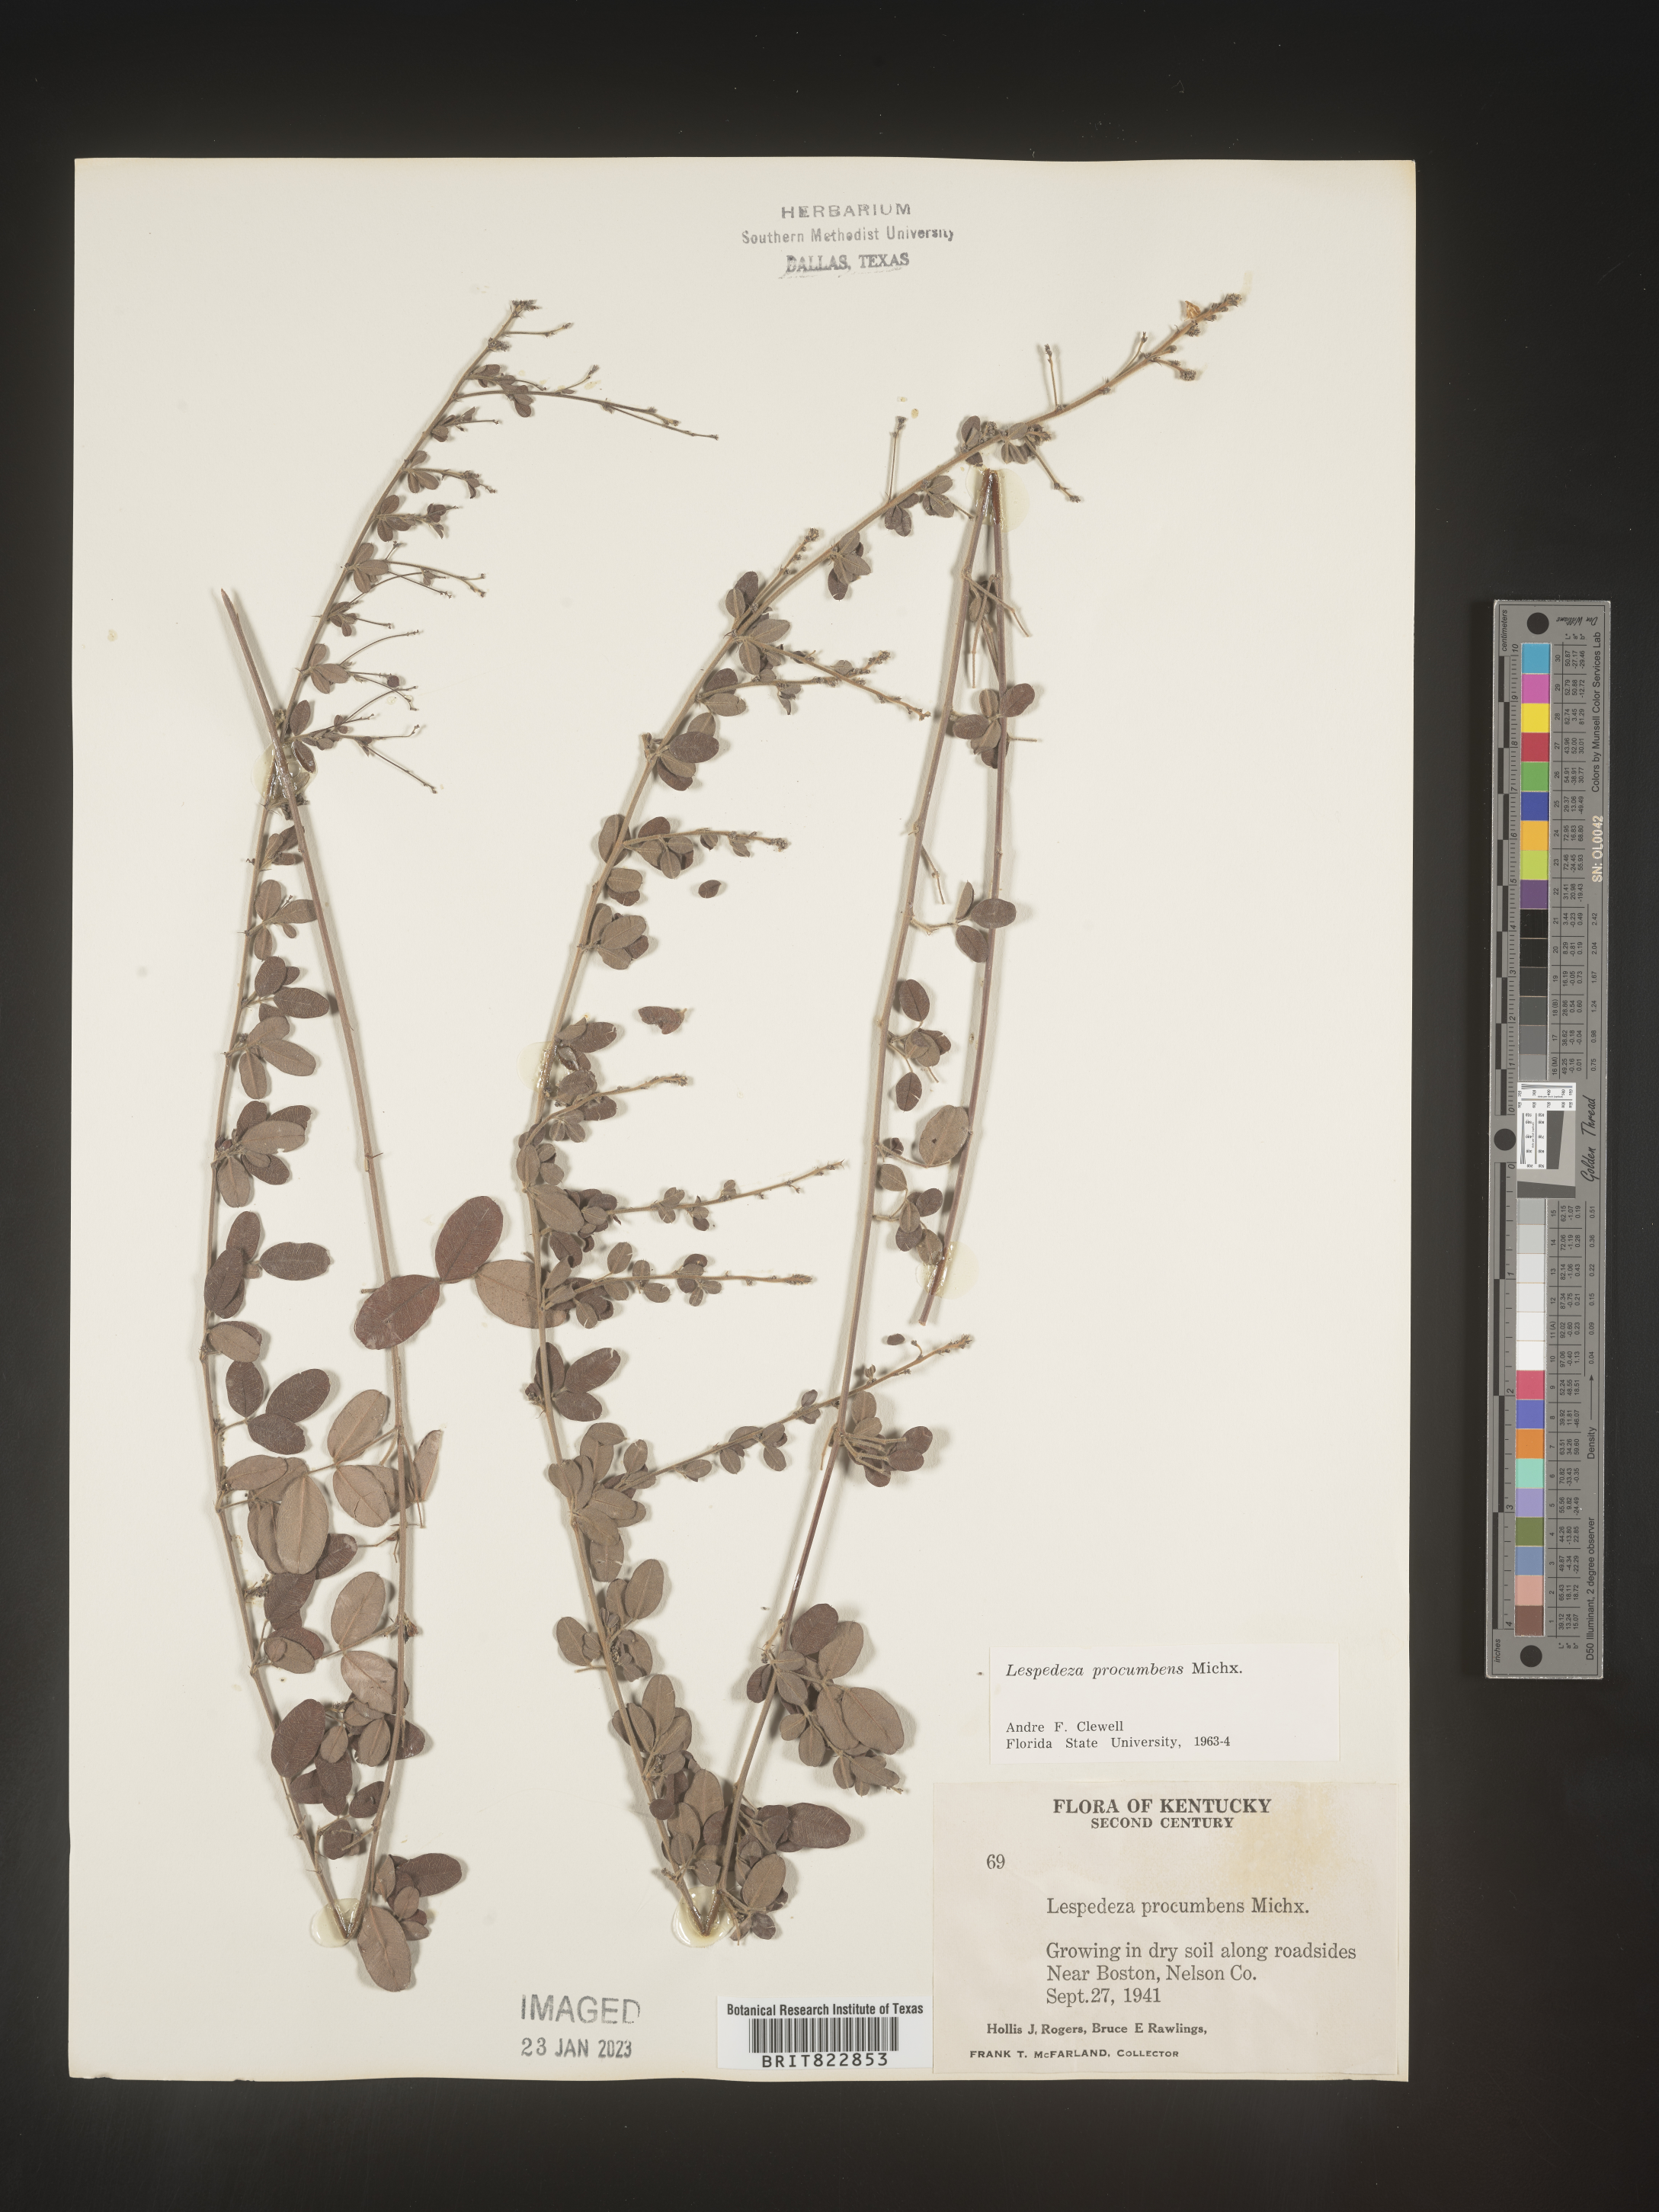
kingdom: Plantae
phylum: Tracheophyta
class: Magnoliopsida
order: Fabales
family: Fabaceae
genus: Lespedeza
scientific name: Lespedeza procumbens
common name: Downy trailing bush-clover
